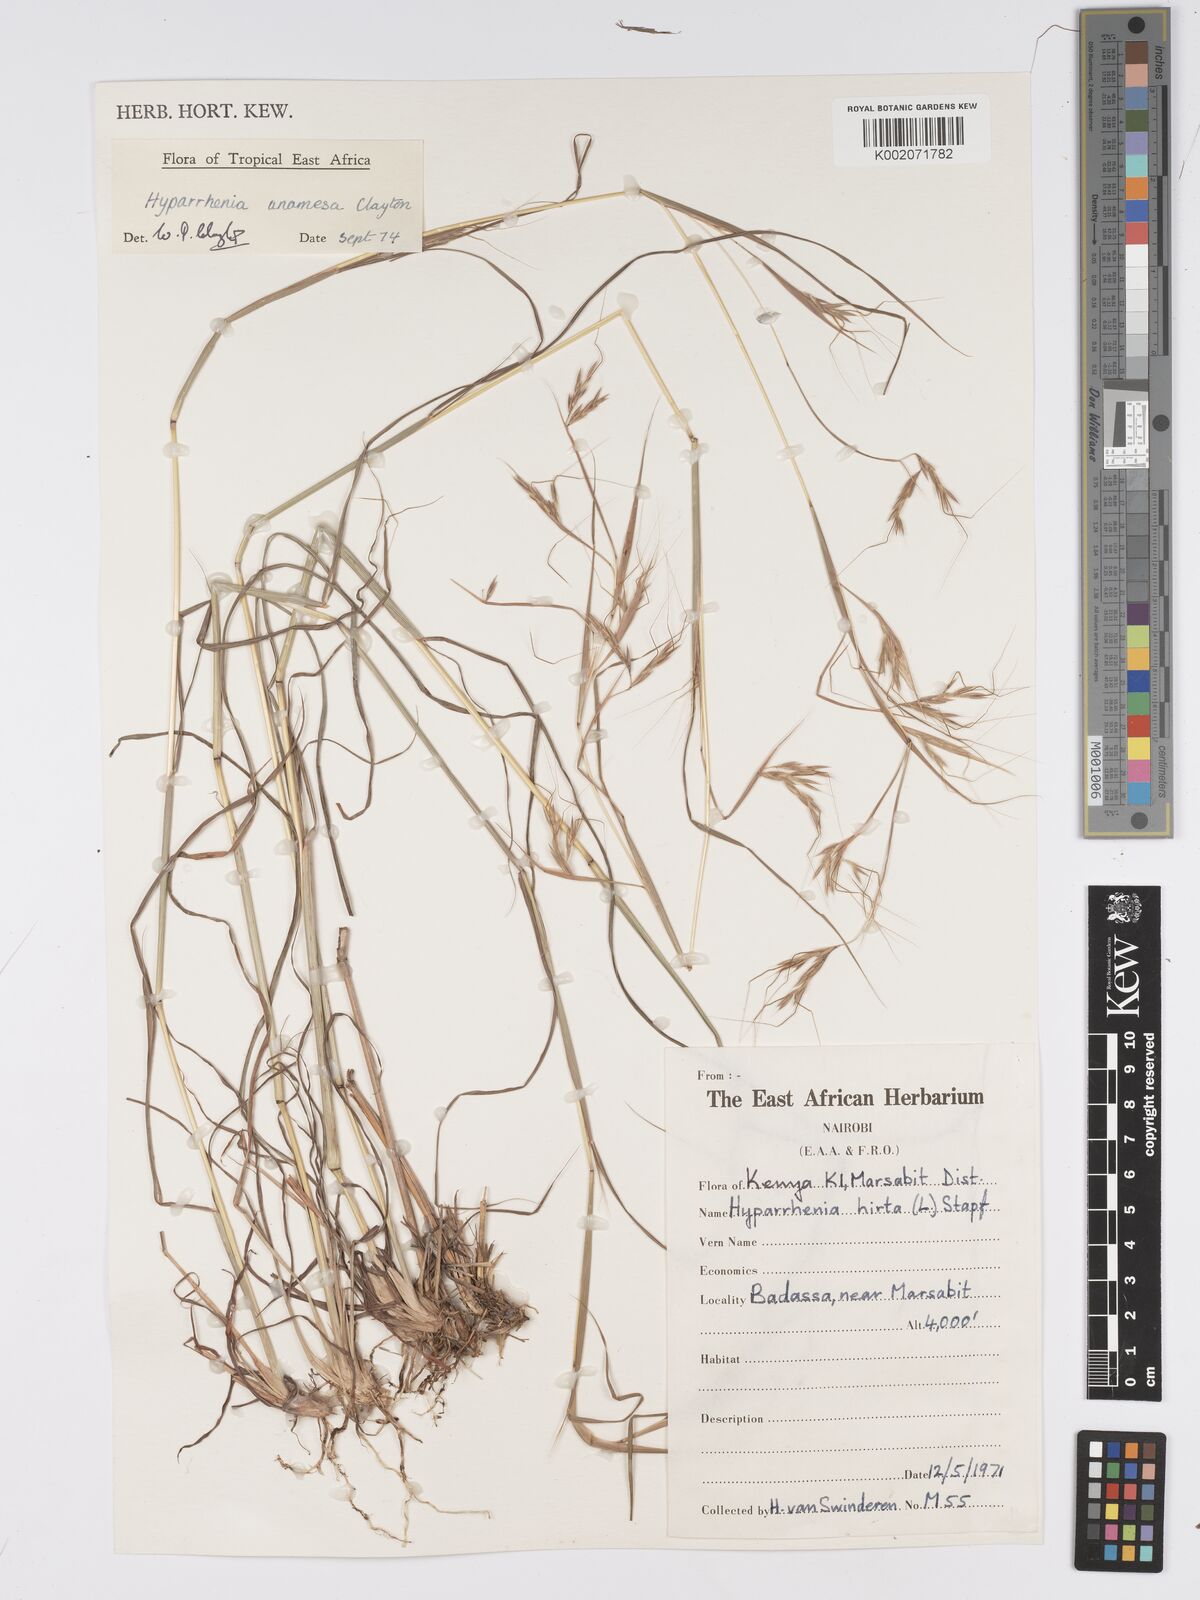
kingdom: Plantae
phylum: Tracheophyta
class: Liliopsida
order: Poales
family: Poaceae
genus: Hyparrhenia
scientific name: Hyparrhenia anamesa
